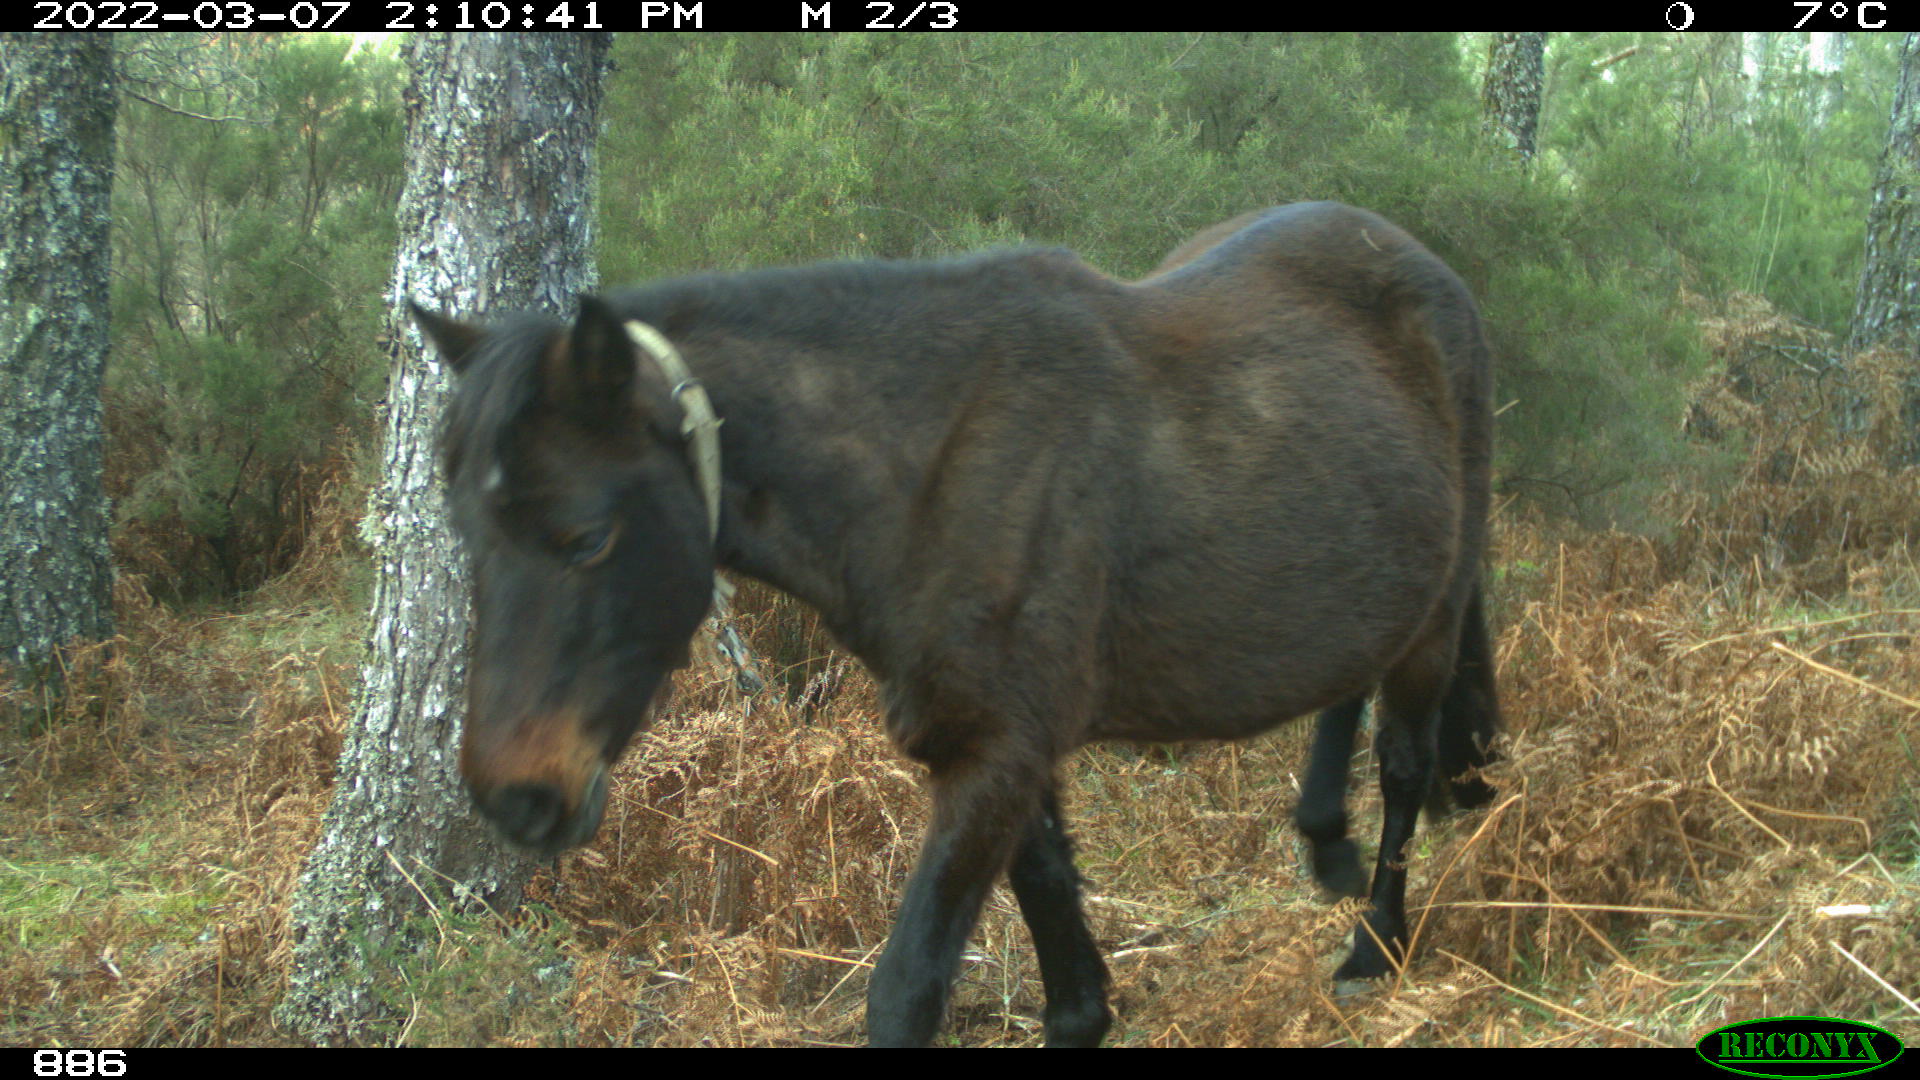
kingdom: Animalia
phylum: Chordata
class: Mammalia
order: Perissodactyla
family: Equidae
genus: Equus
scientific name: Equus caballus
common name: Horse
